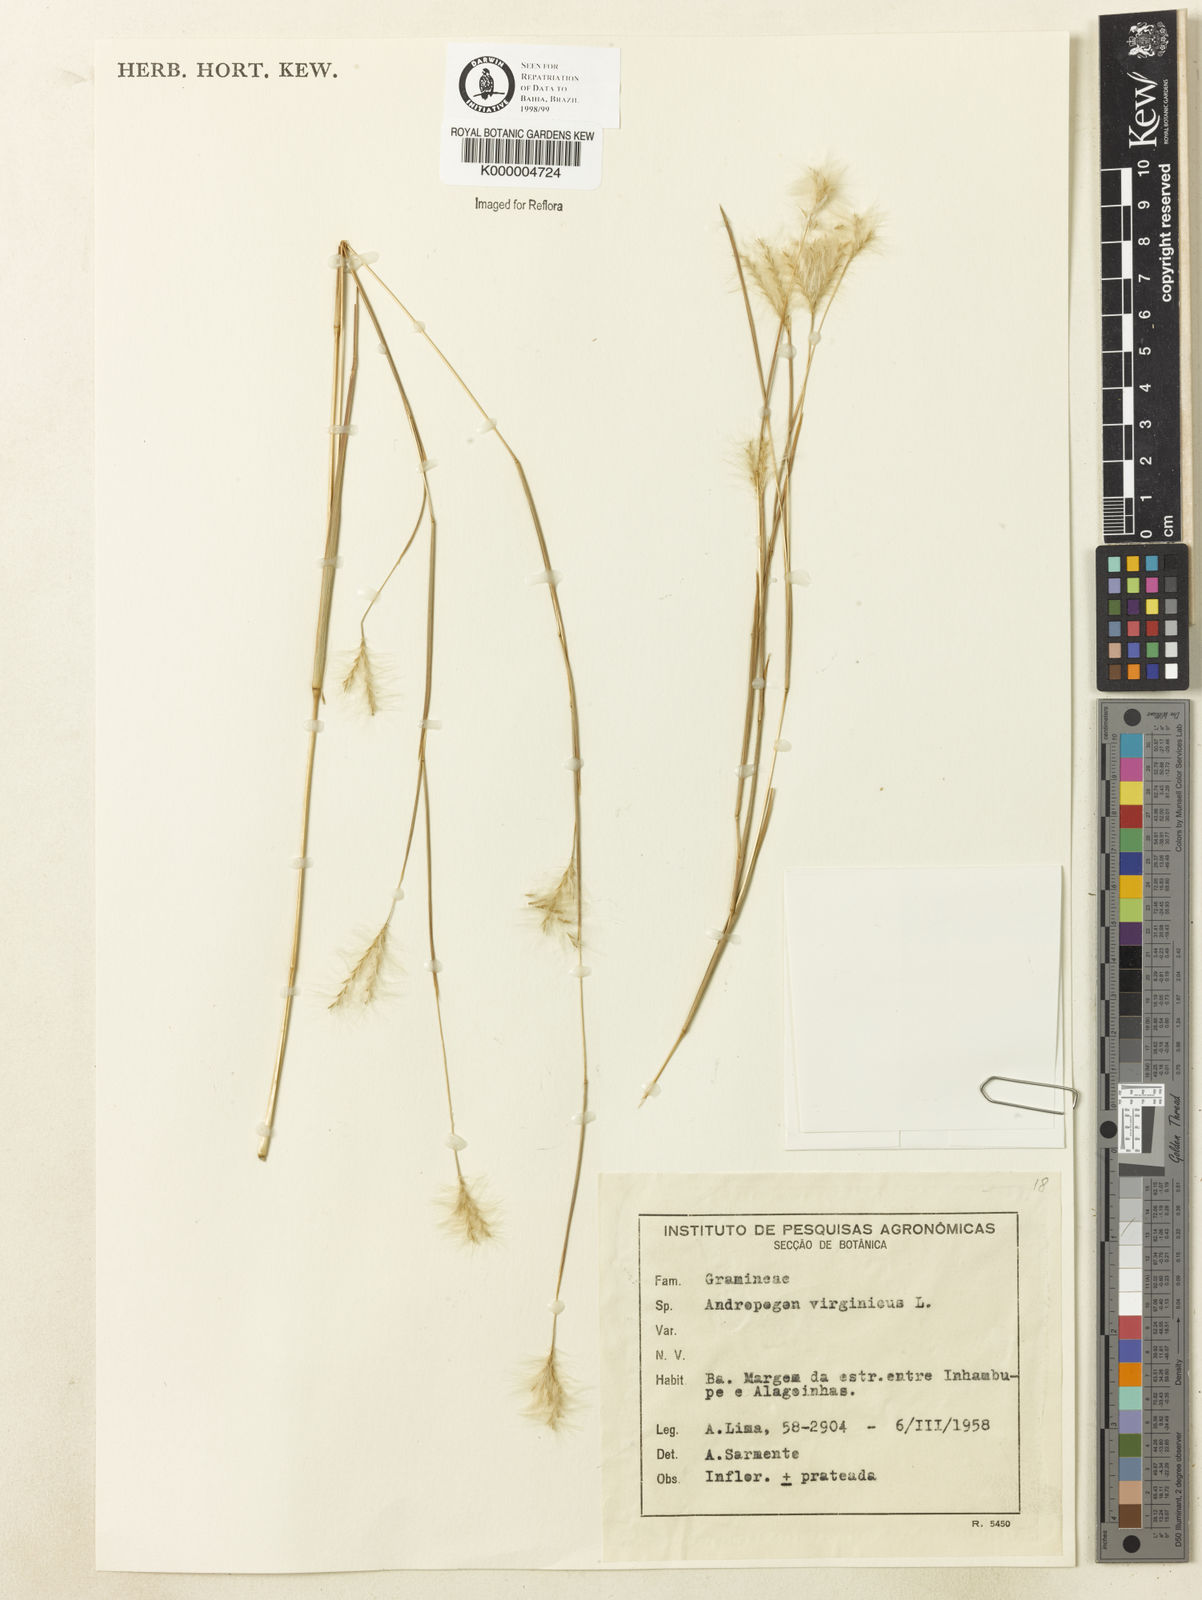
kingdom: Plantae
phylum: Tracheophyta
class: Liliopsida
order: Poales
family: Poaceae
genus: Andropogon
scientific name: Andropogon leucostachyus
